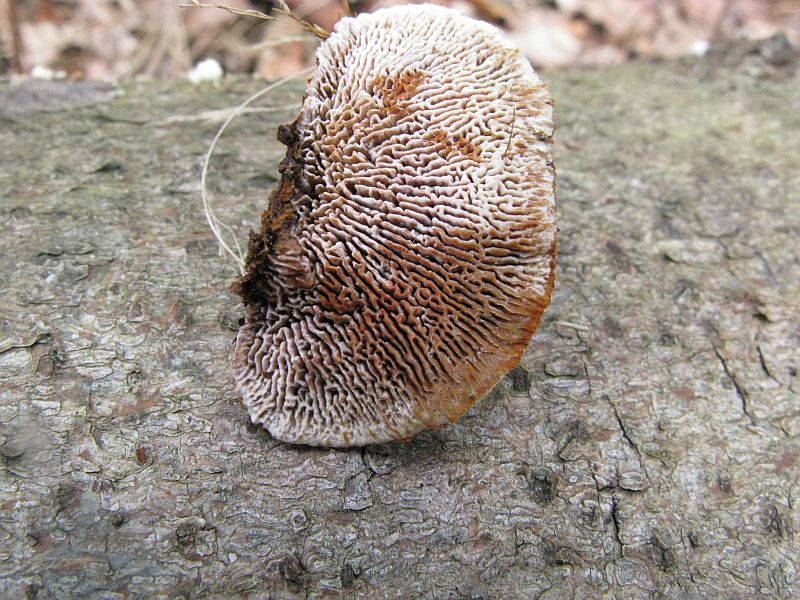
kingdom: Fungi
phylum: Basidiomycota
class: Agaricomycetes
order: Gloeophyllales
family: Gloeophyllaceae
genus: Gloeophyllum
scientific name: Gloeophyllum sepiarium
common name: fyrre-korkhat
